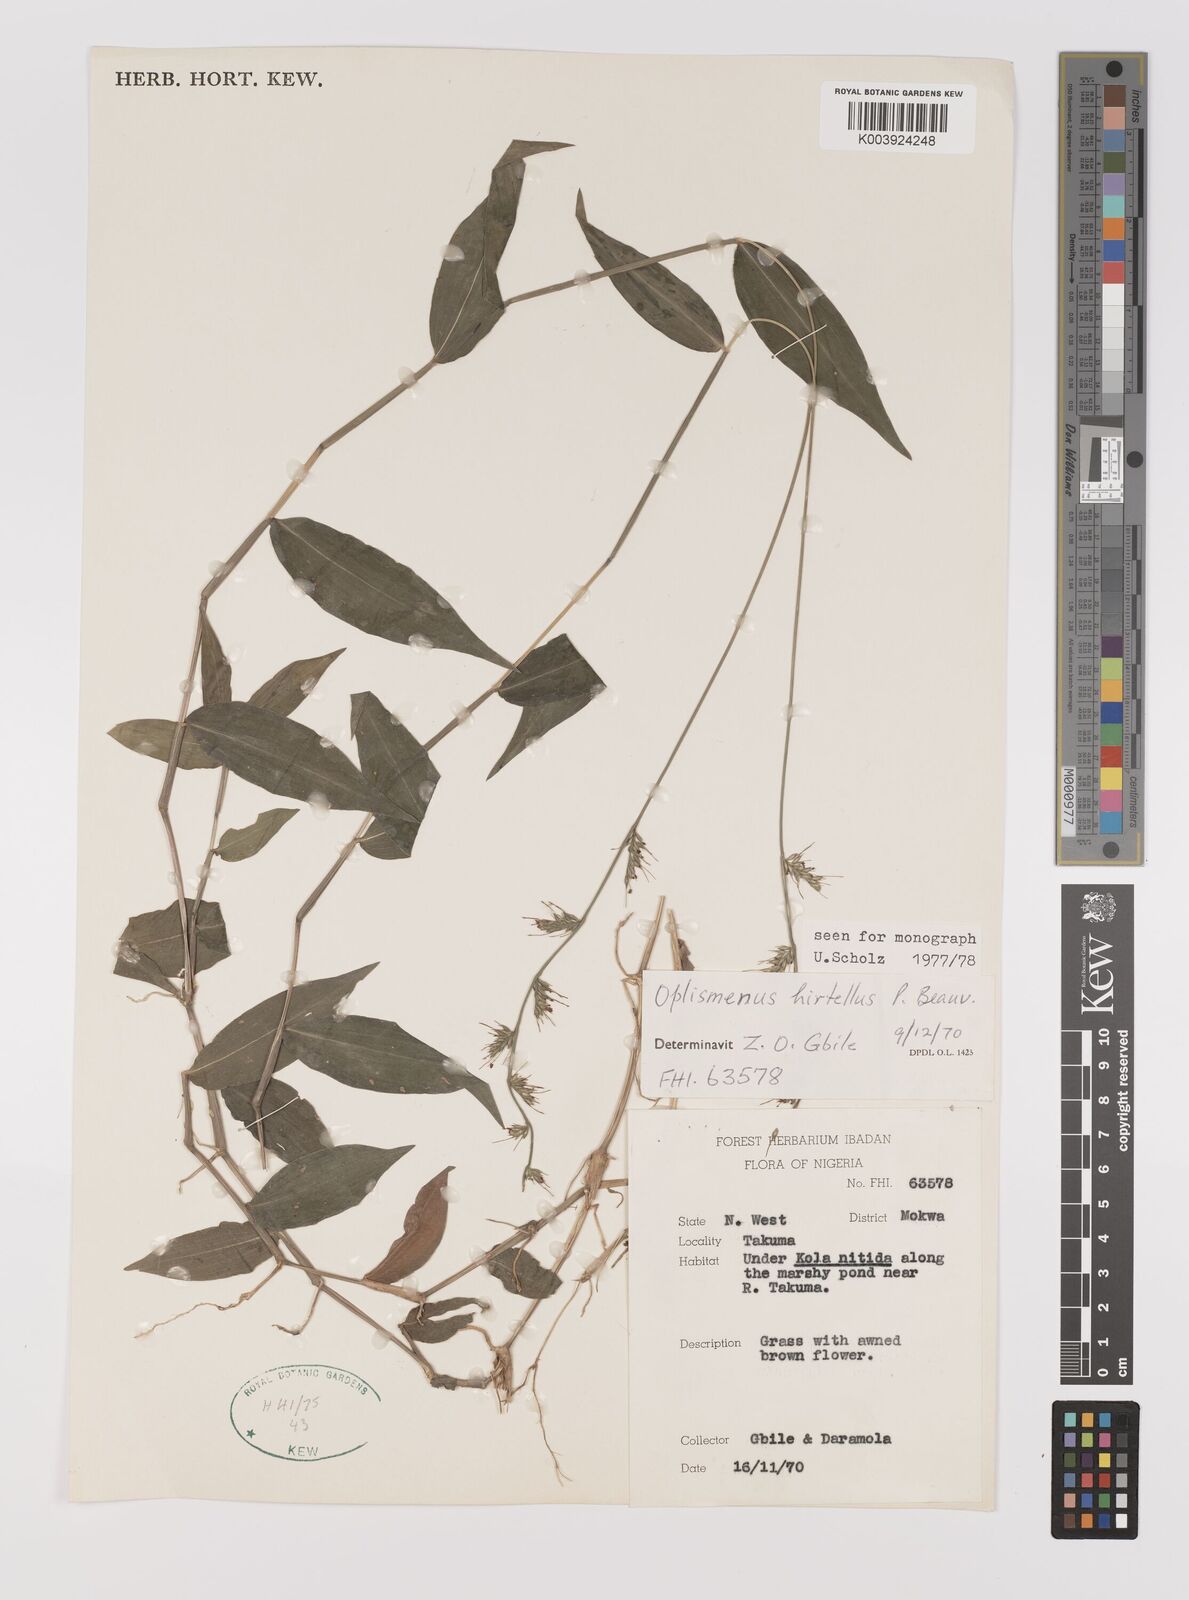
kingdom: Plantae
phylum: Tracheophyta
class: Liliopsida
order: Poales
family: Poaceae
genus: Oplismenus
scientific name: Oplismenus hirtellus
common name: Basketgrass
